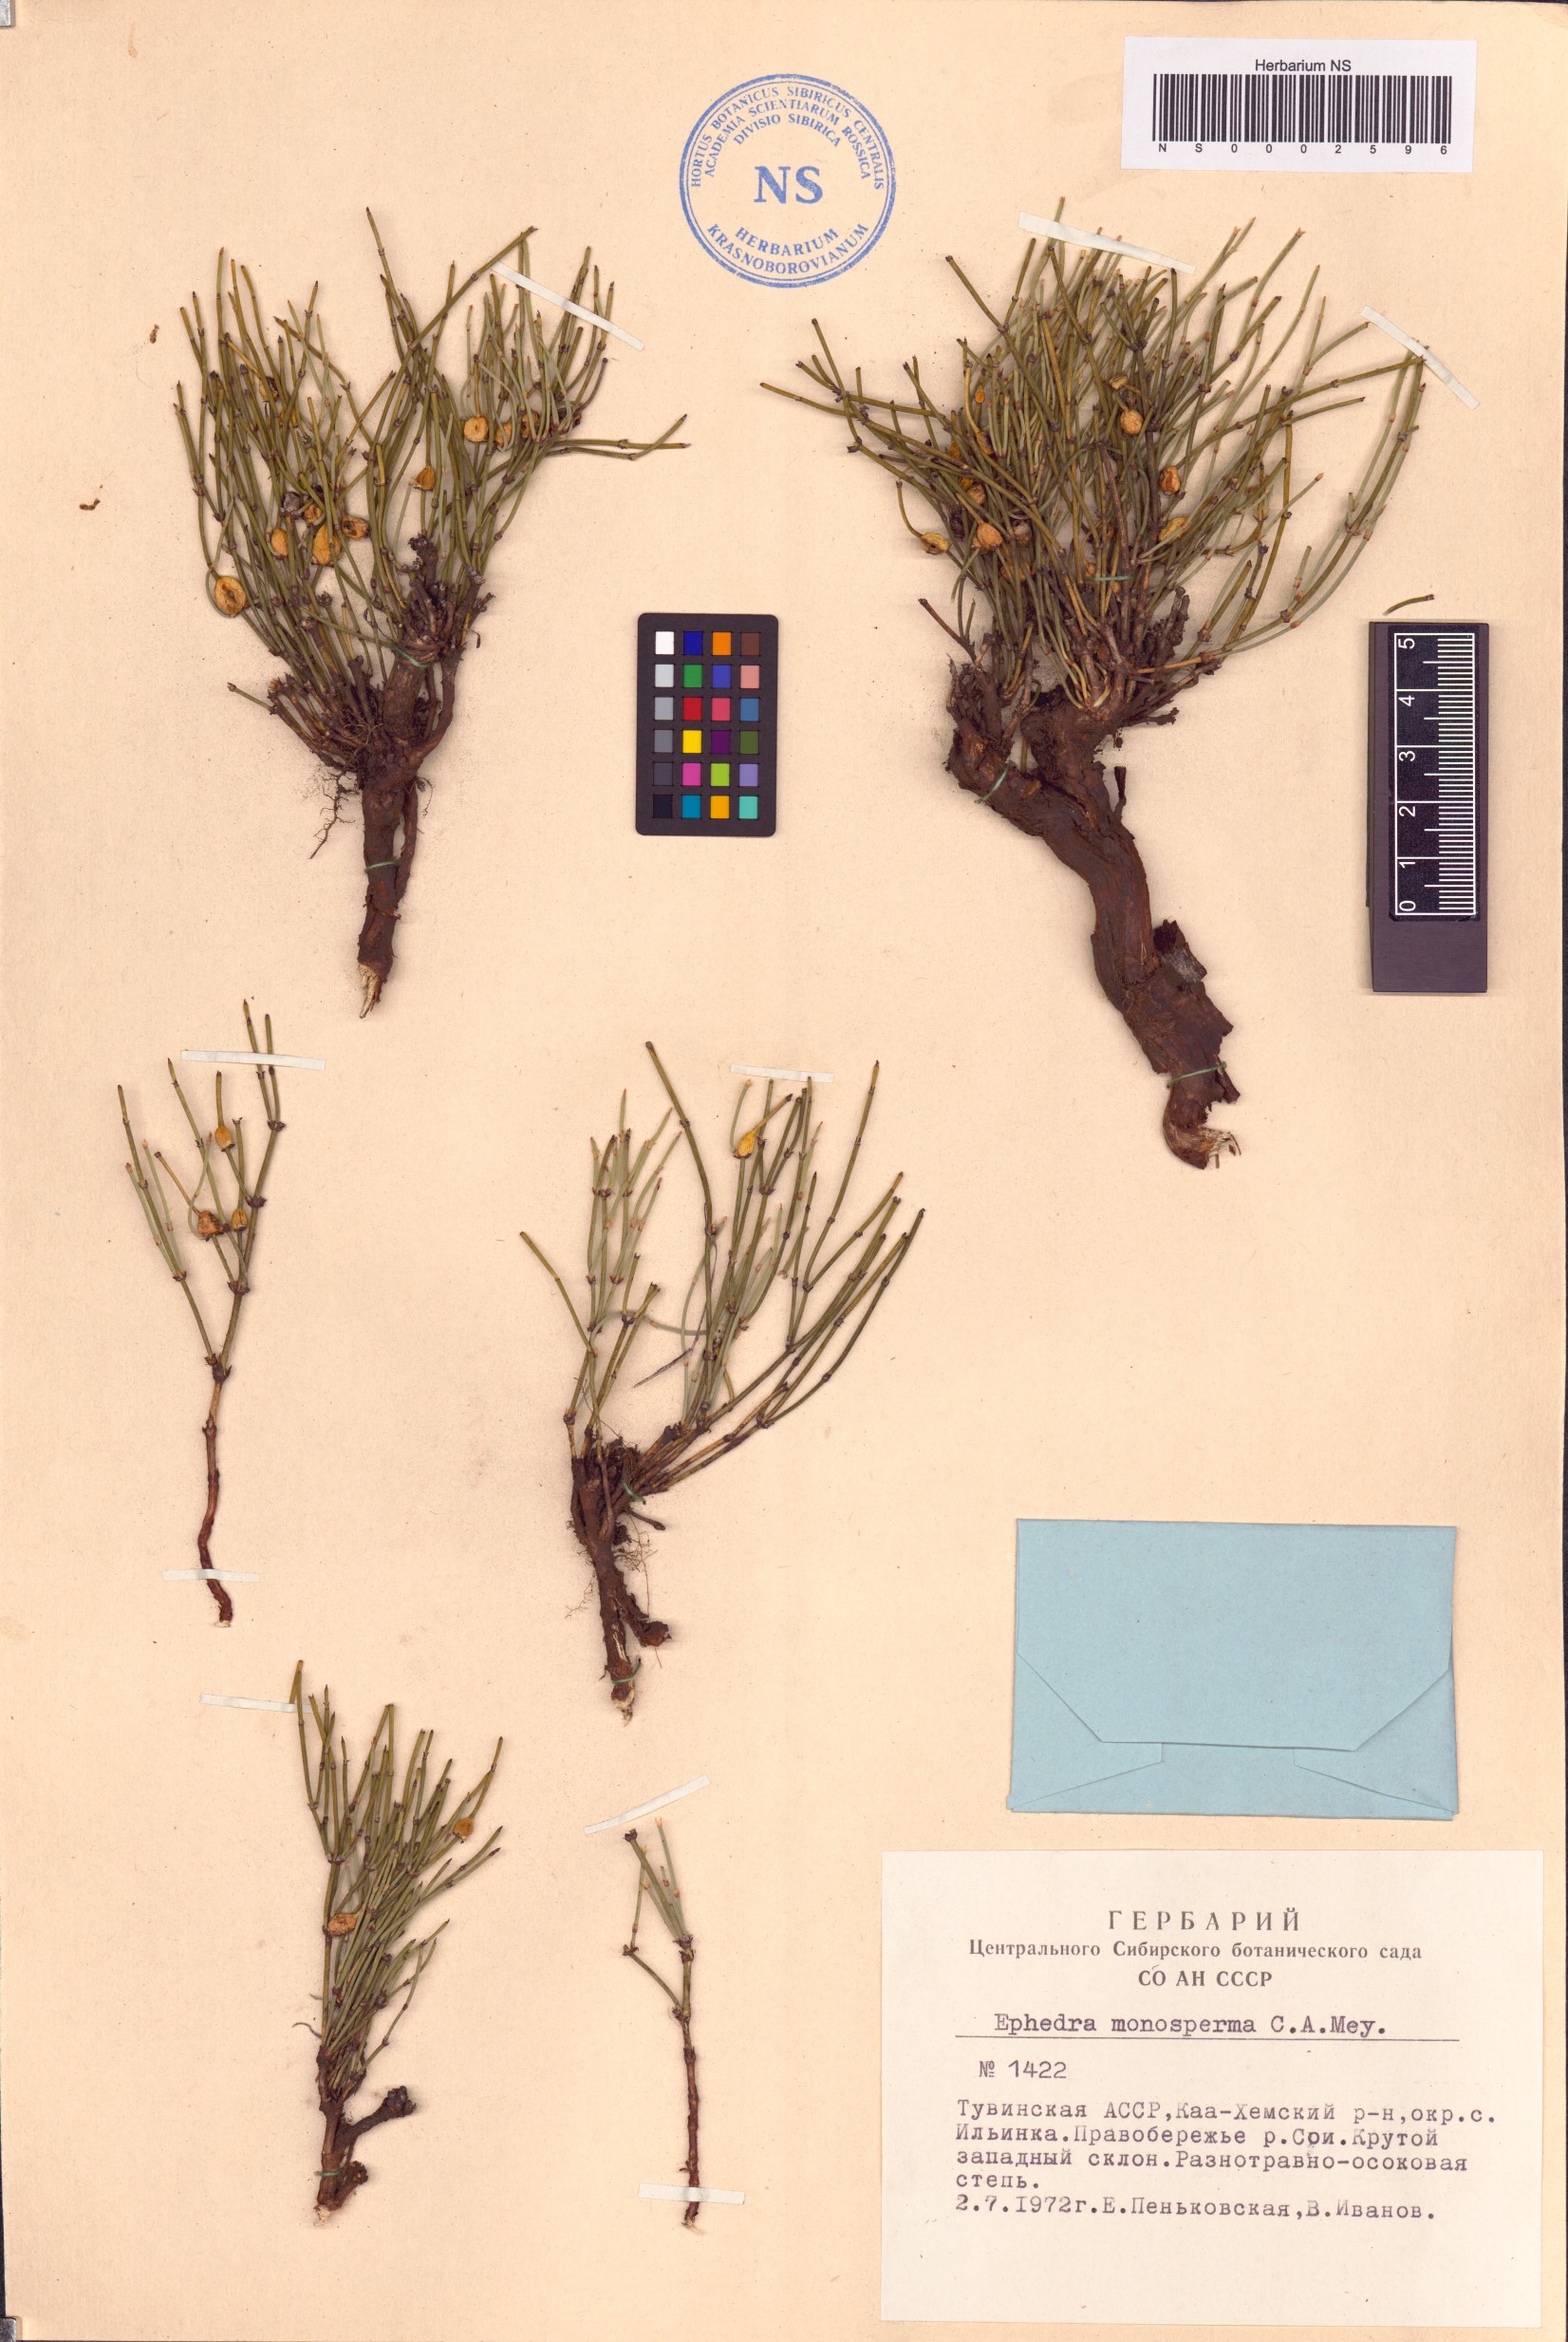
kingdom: Plantae
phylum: Tracheophyta
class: Gnetopsida
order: Ephedrales
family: Ephedraceae
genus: Ephedra
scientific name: Ephedra monosperma
